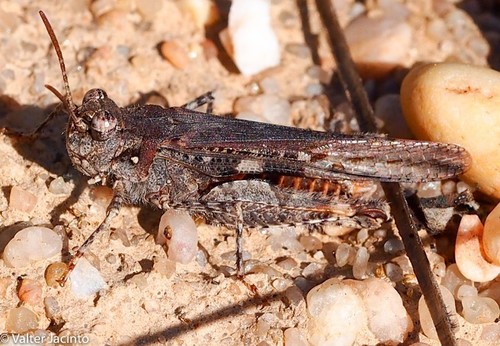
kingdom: Animalia
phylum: Arthropoda
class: Insecta
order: Orthoptera
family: Acrididae
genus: Acrotylus
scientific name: Acrotylus insubricus
